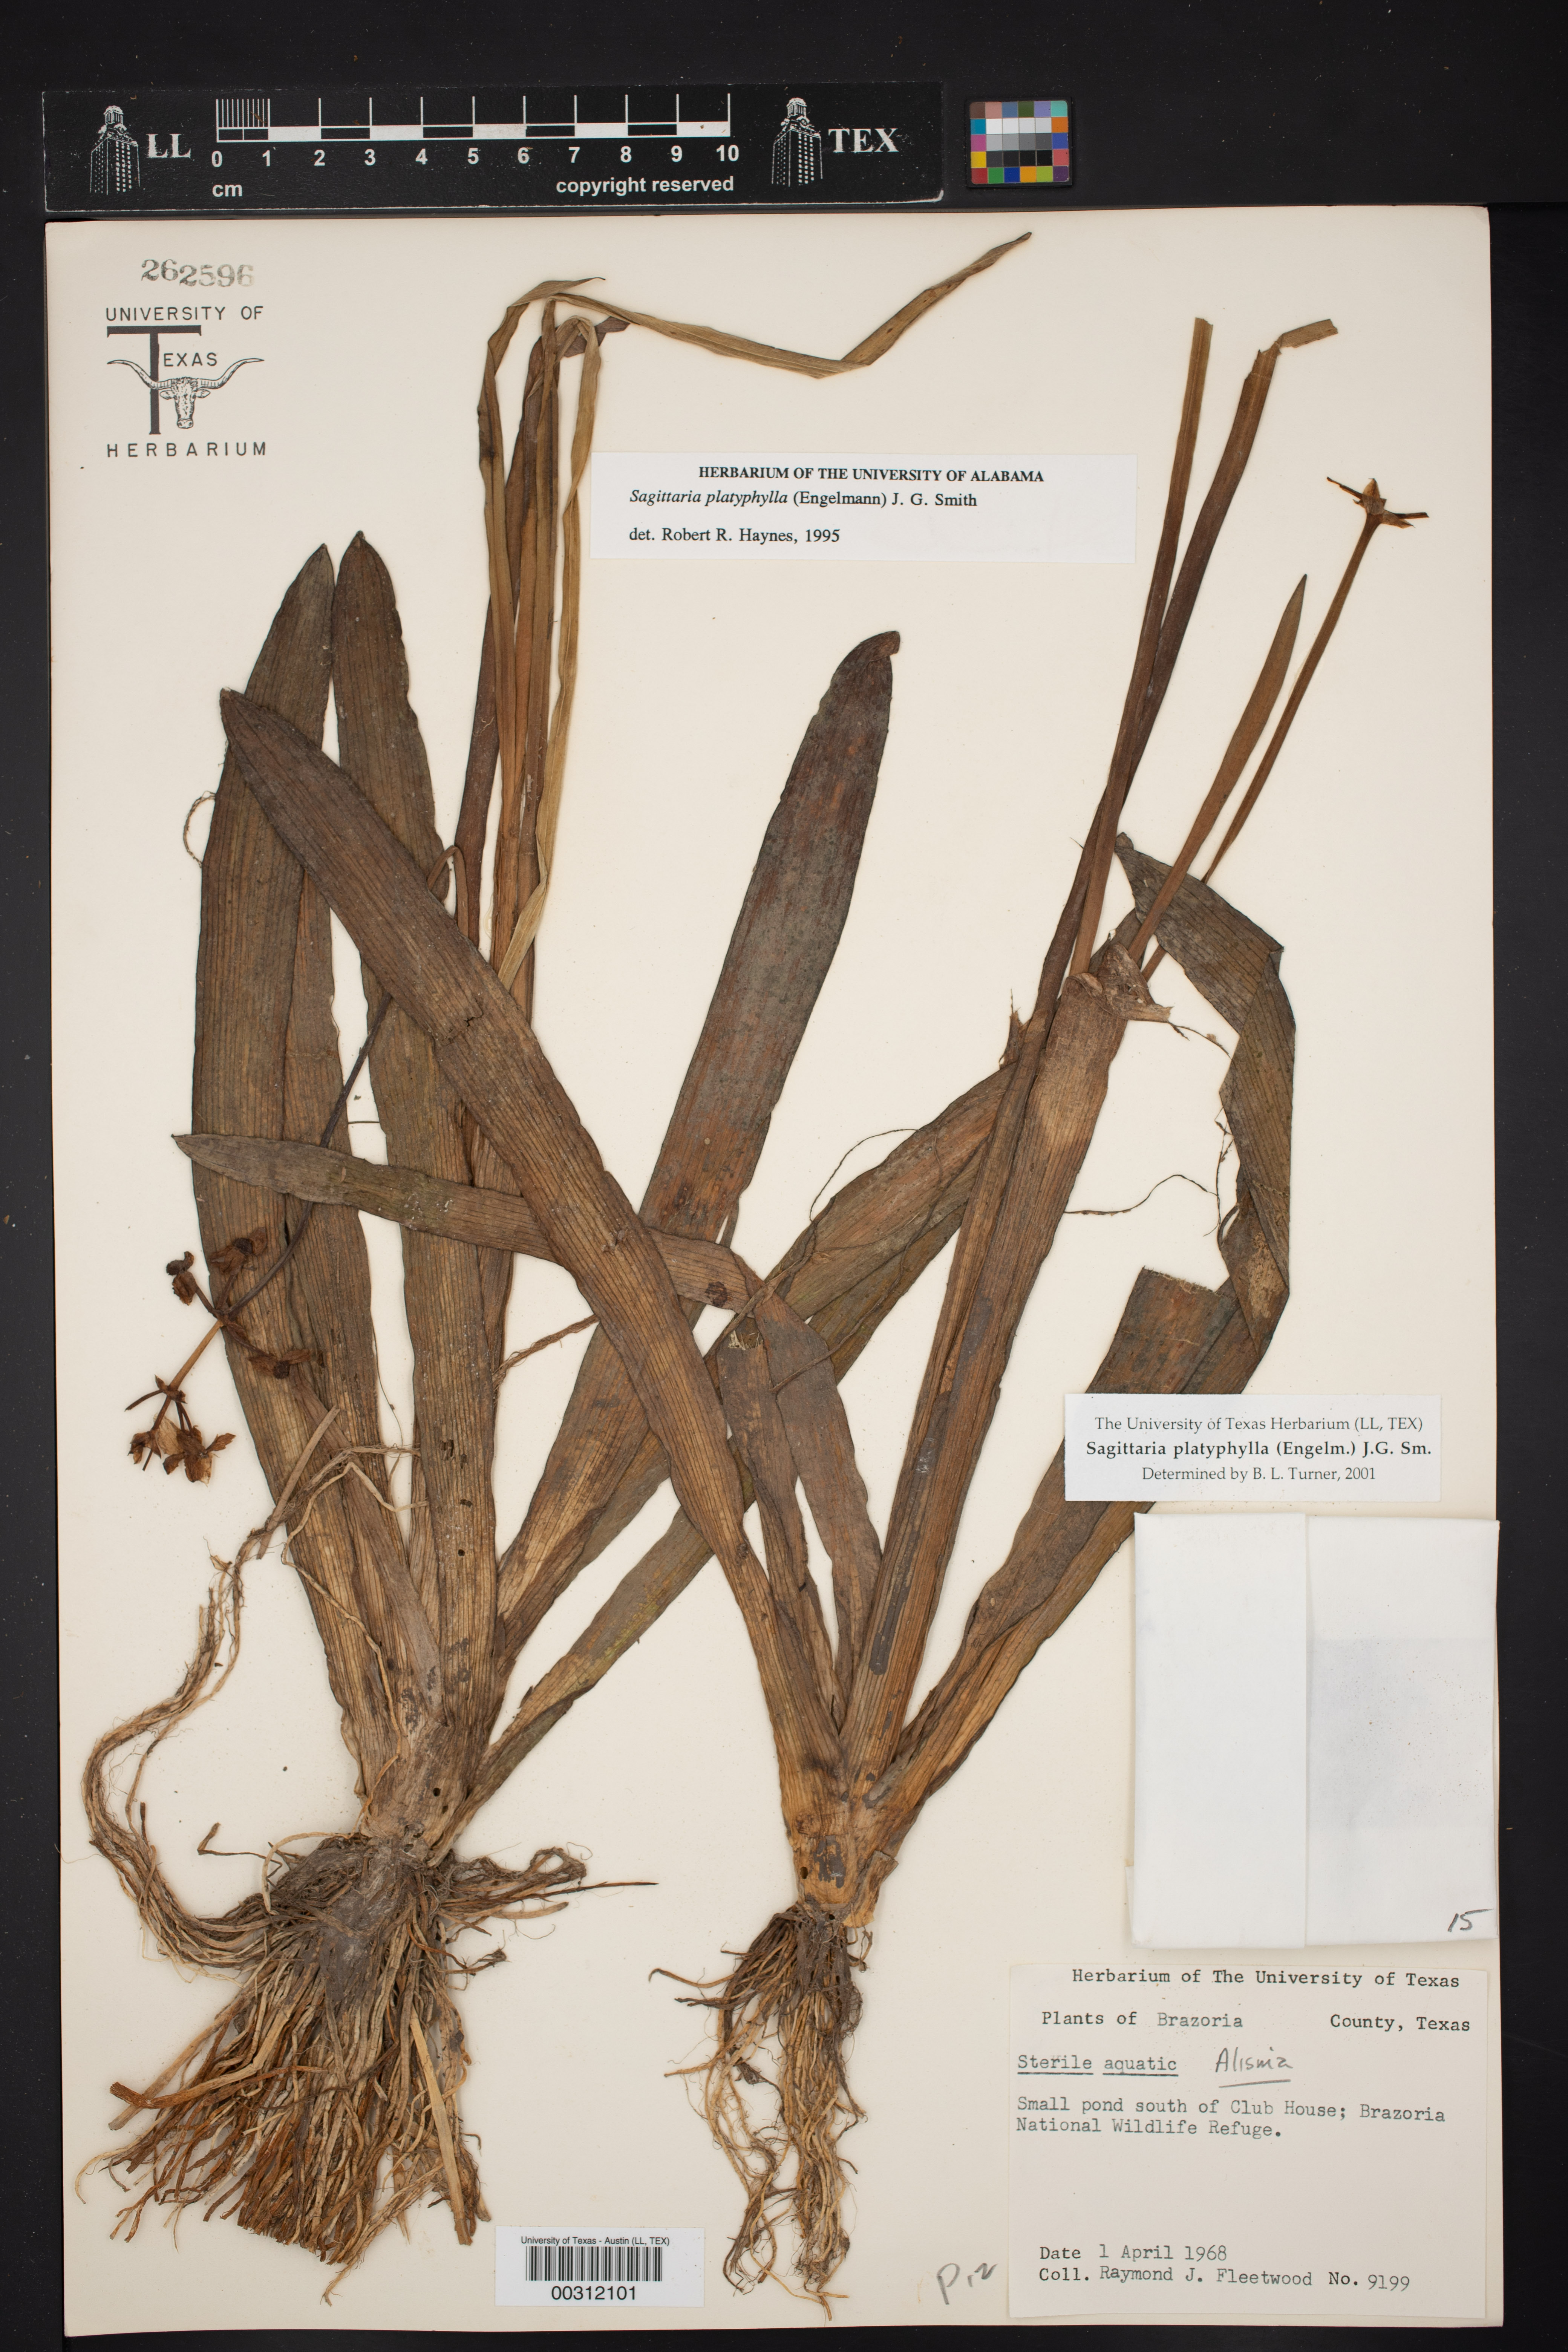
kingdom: Plantae
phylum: Tracheophyta
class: Liliopsida
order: Alismatales
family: Alismataceae
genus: Sagittaria
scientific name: Sagittaria platyphylla
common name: Broad-leaf arrowhead
